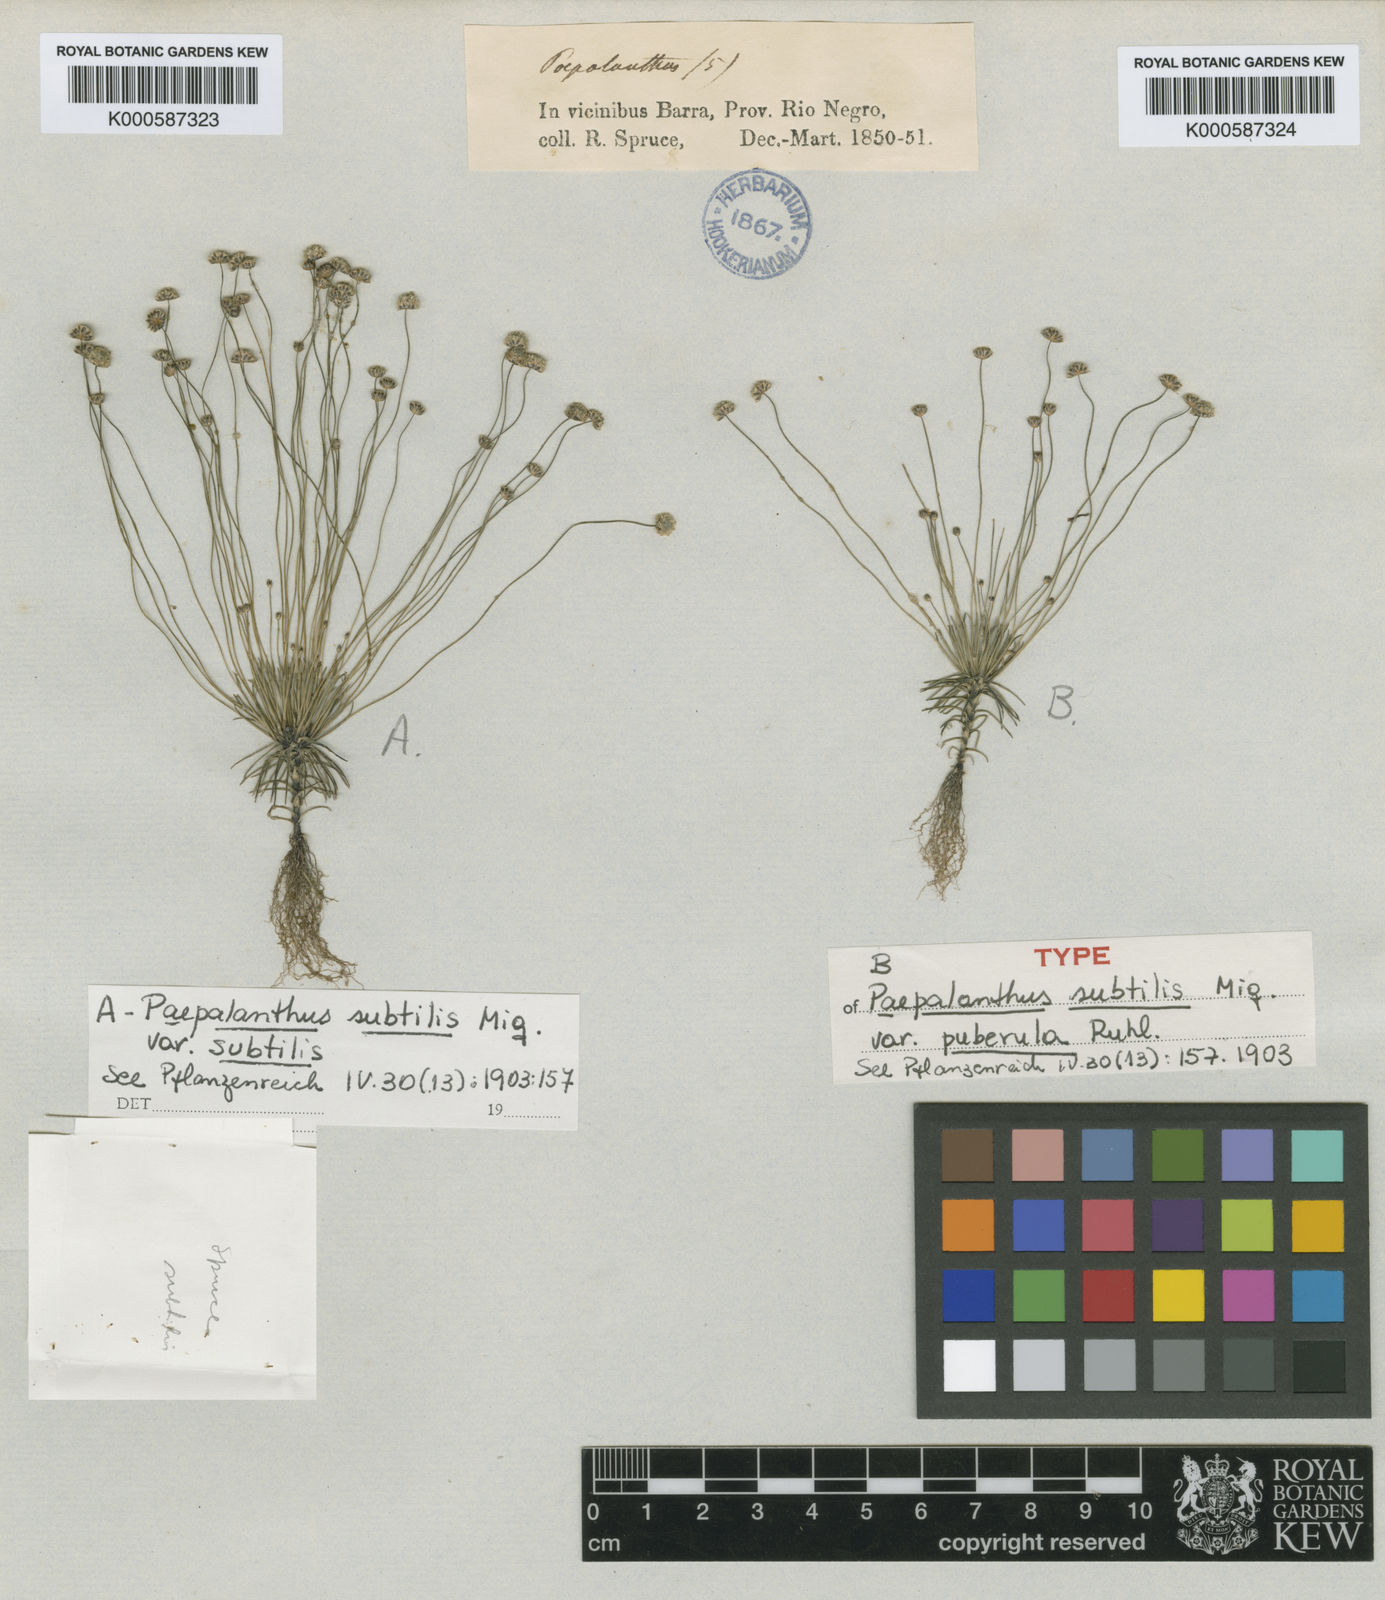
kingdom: Plantae
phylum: Tracheophyta
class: Liliopsida
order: Poales
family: Eriocaulaceae
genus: Paepalanthus
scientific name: Paepalanthus subtilis
